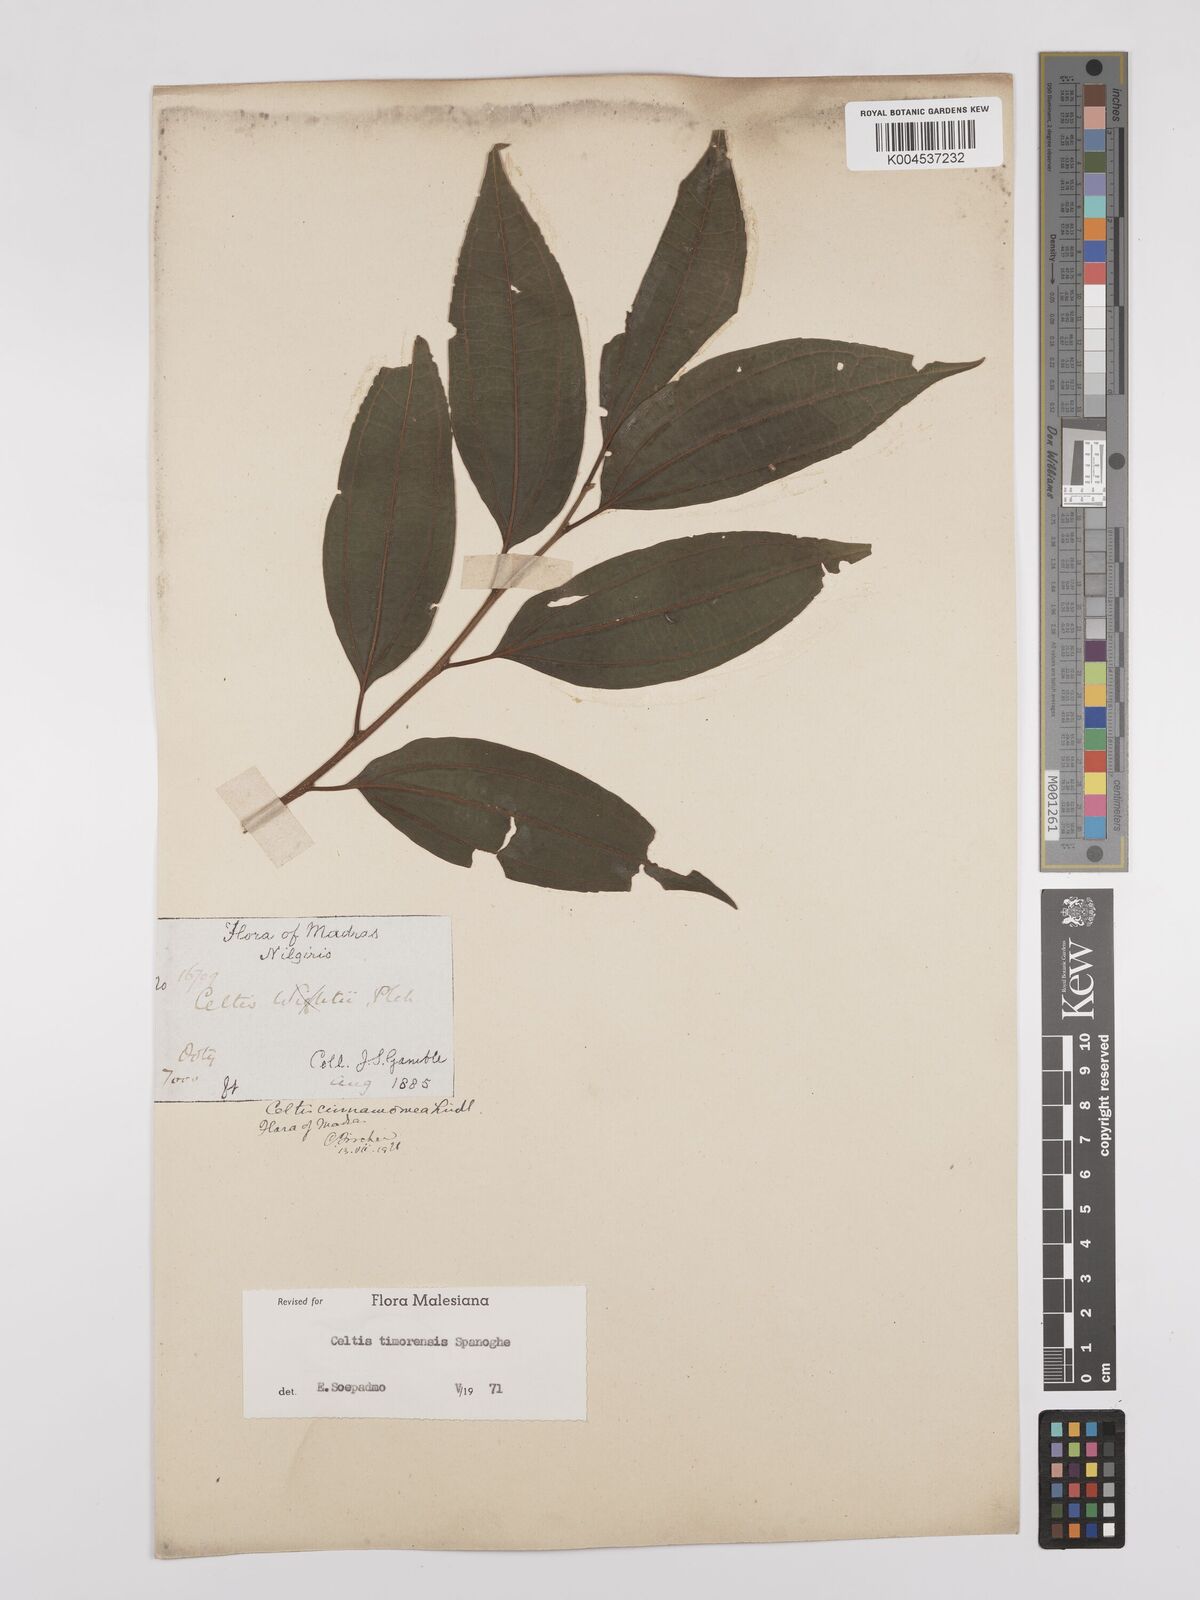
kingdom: Plantae
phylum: Tracheophyta
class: Magnoliopsida
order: Rosales
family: Cannabaceae
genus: Celtis
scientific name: Celtis timorensis
